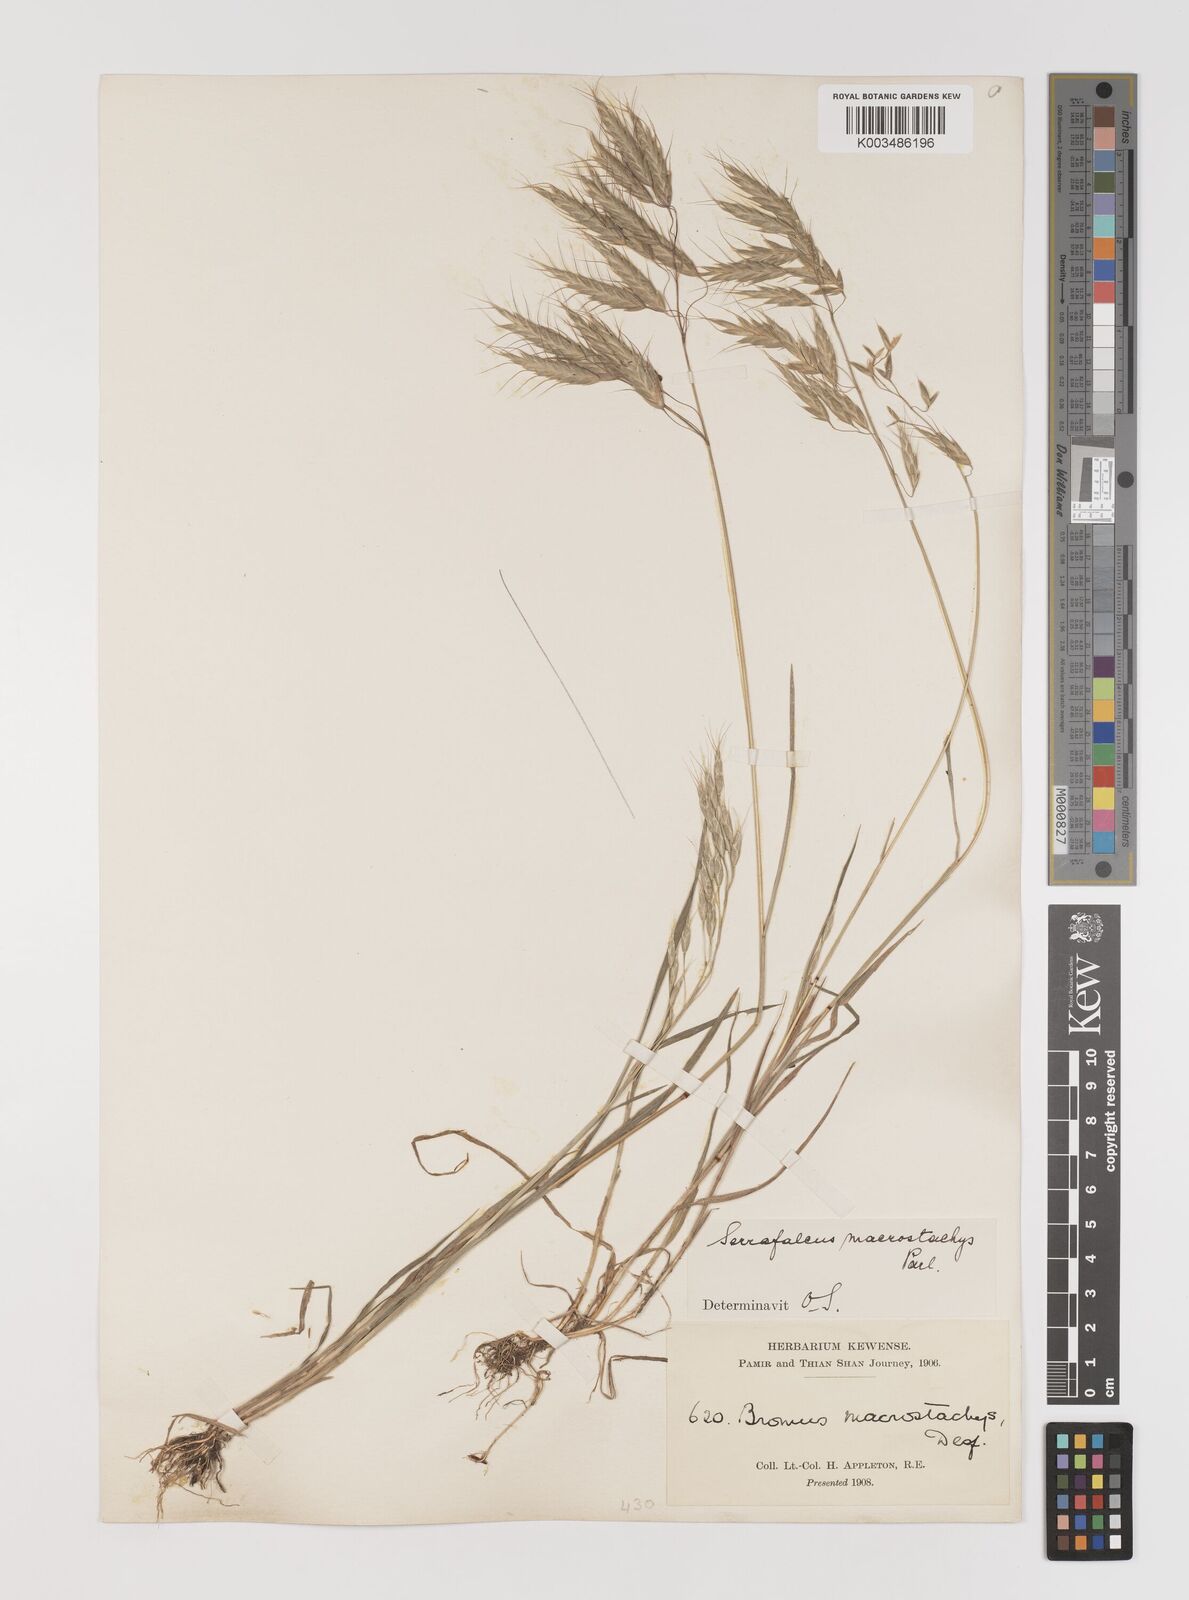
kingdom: Plantae
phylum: Tracheophyta
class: Liliopsida
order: Poales
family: Poaceae
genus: Bromus
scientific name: Bromus oxyodon
